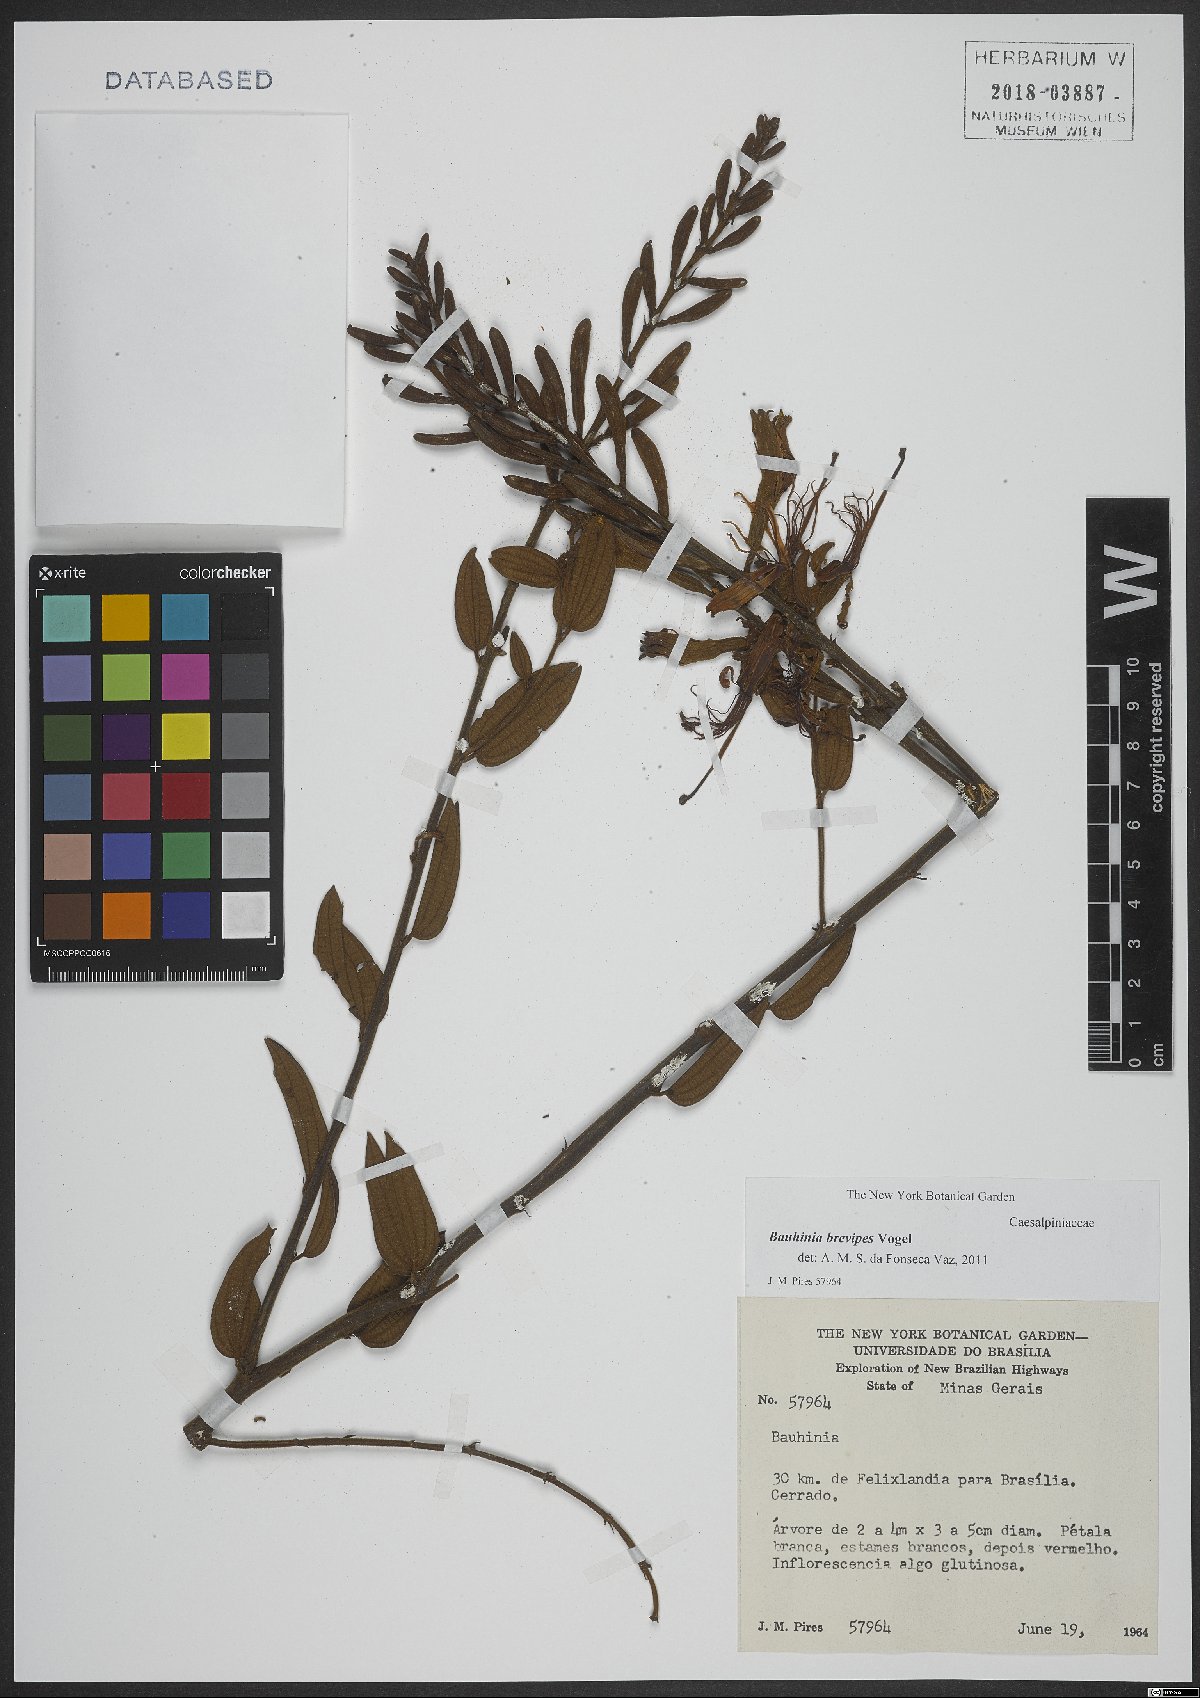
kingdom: Plantae
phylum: Tracheophyta
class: Magnoliopsida
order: Fabales
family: Fabaceae
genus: Bauhinia
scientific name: Bauhinia brevipes
